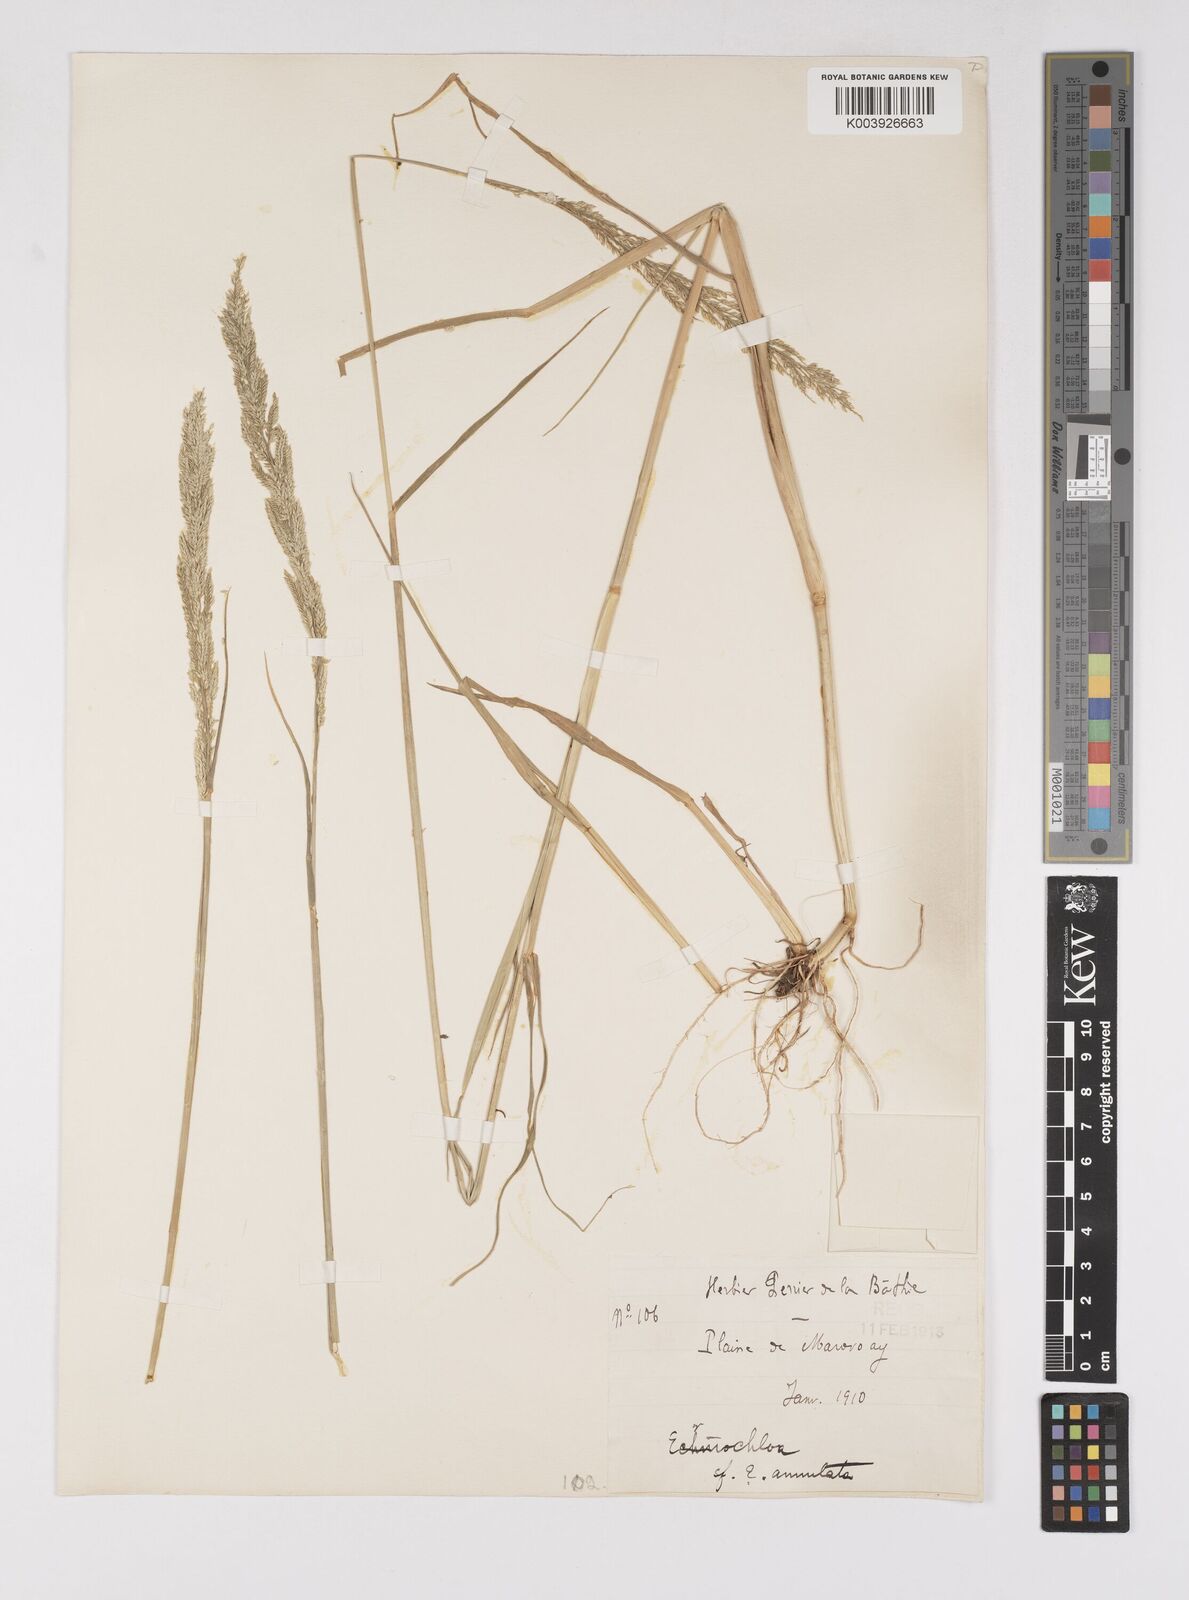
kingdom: Plantae
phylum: Tracheophyta
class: Liliopsida
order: Poales
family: Poaceae
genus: Eriochloa
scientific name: Eriochloa parvispiculata
